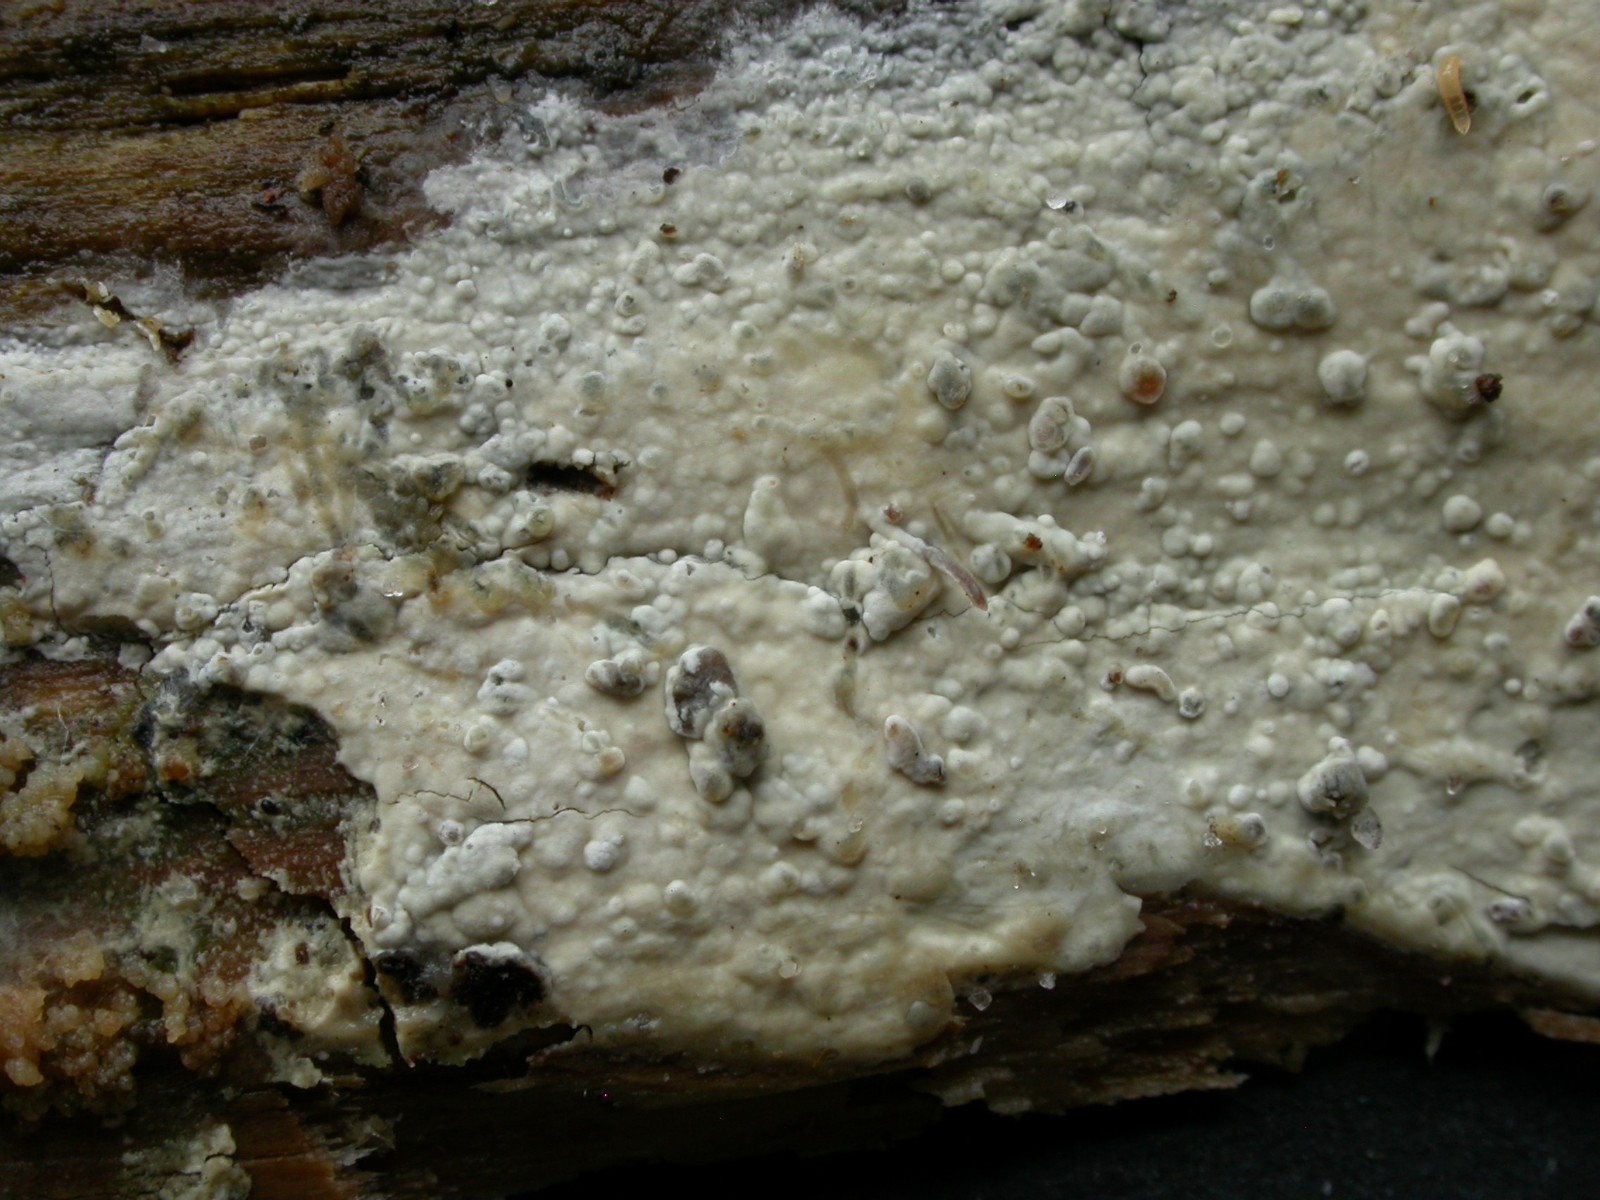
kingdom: Fungi
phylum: Basidiomycota
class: Agaricomycetes
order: Russulales
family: Peniophoraceae
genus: Gloiothele
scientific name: Gloiothele lactescens
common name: bitter olieskind
